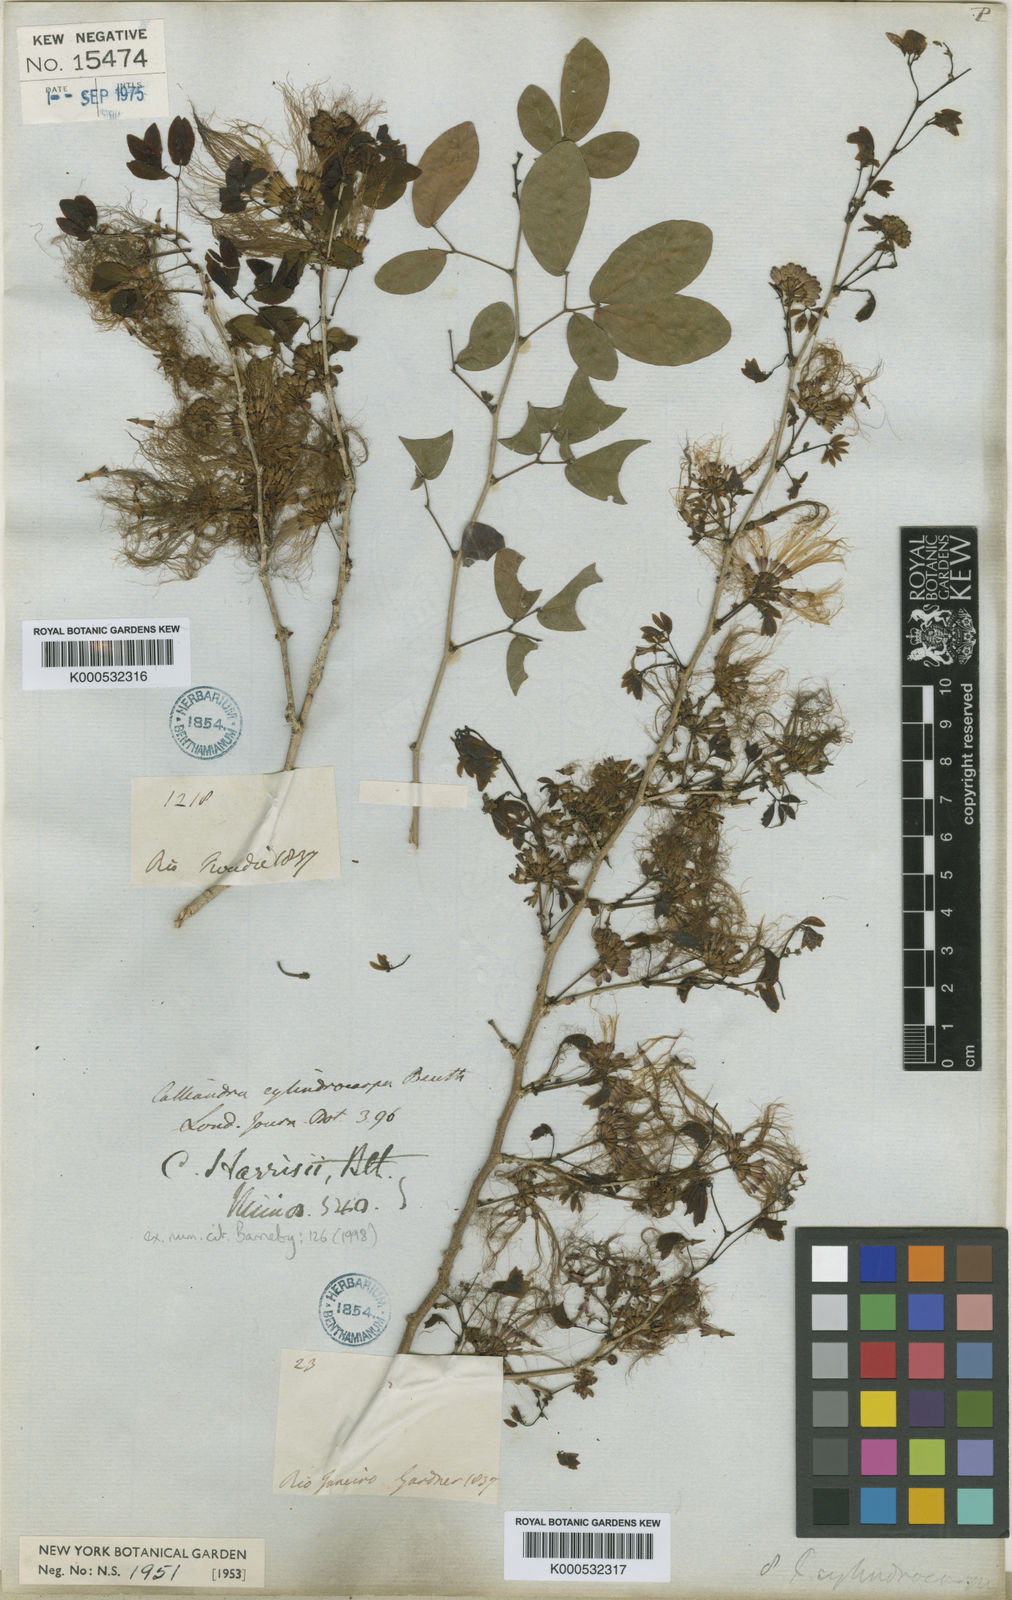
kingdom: Plantae
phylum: Tracheophyta
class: Magnoliopsida
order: Fabales
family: Fabaceae
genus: Calliandra
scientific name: Calliandra harrisii
